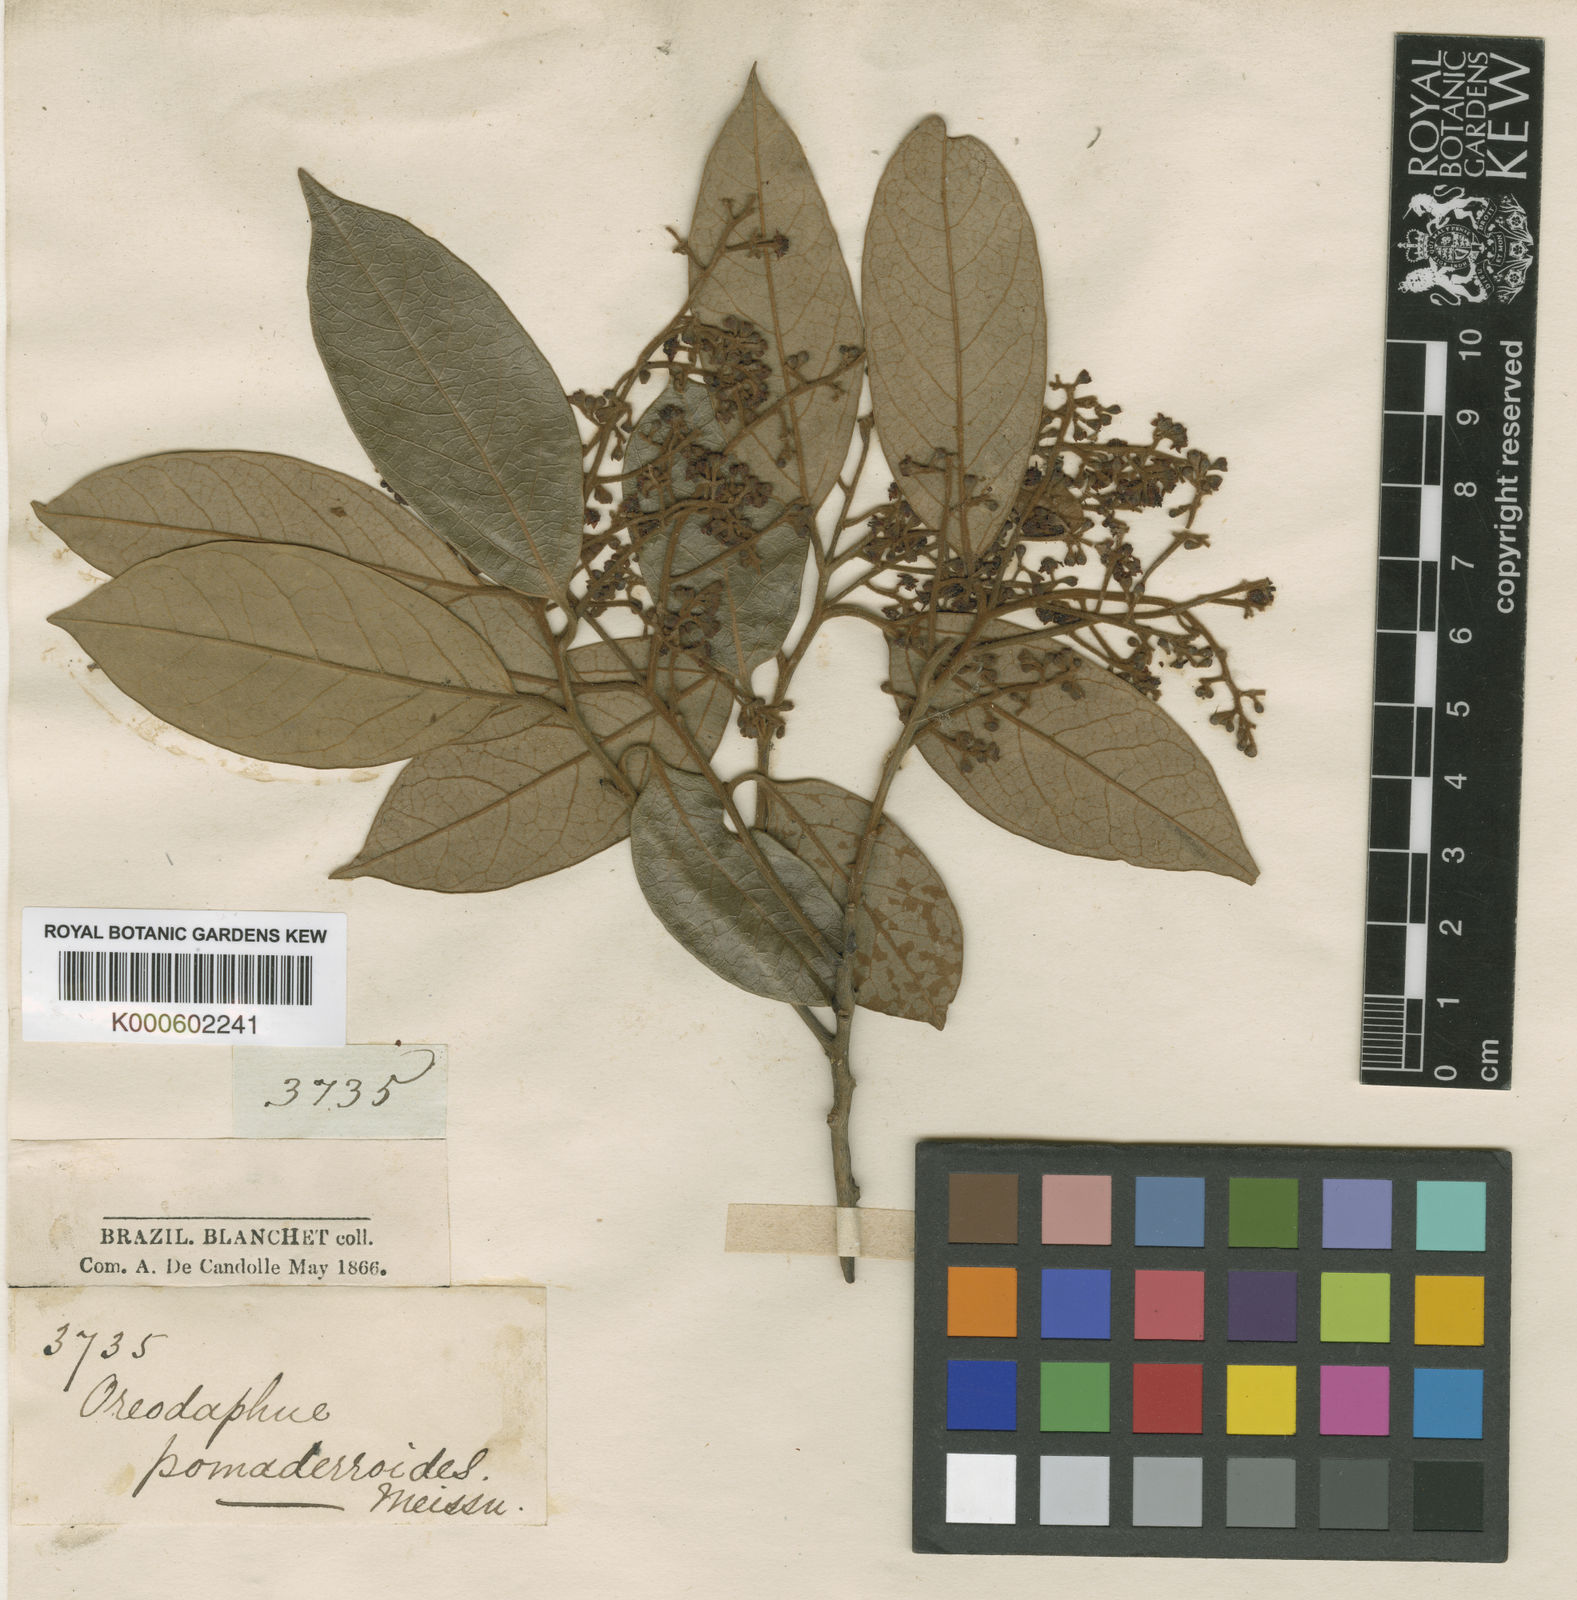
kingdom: Plantae
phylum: Tracheophyta
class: Magnoliopsida
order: Laurales
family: Lauraceae
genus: Ocotea
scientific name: Ocotea
